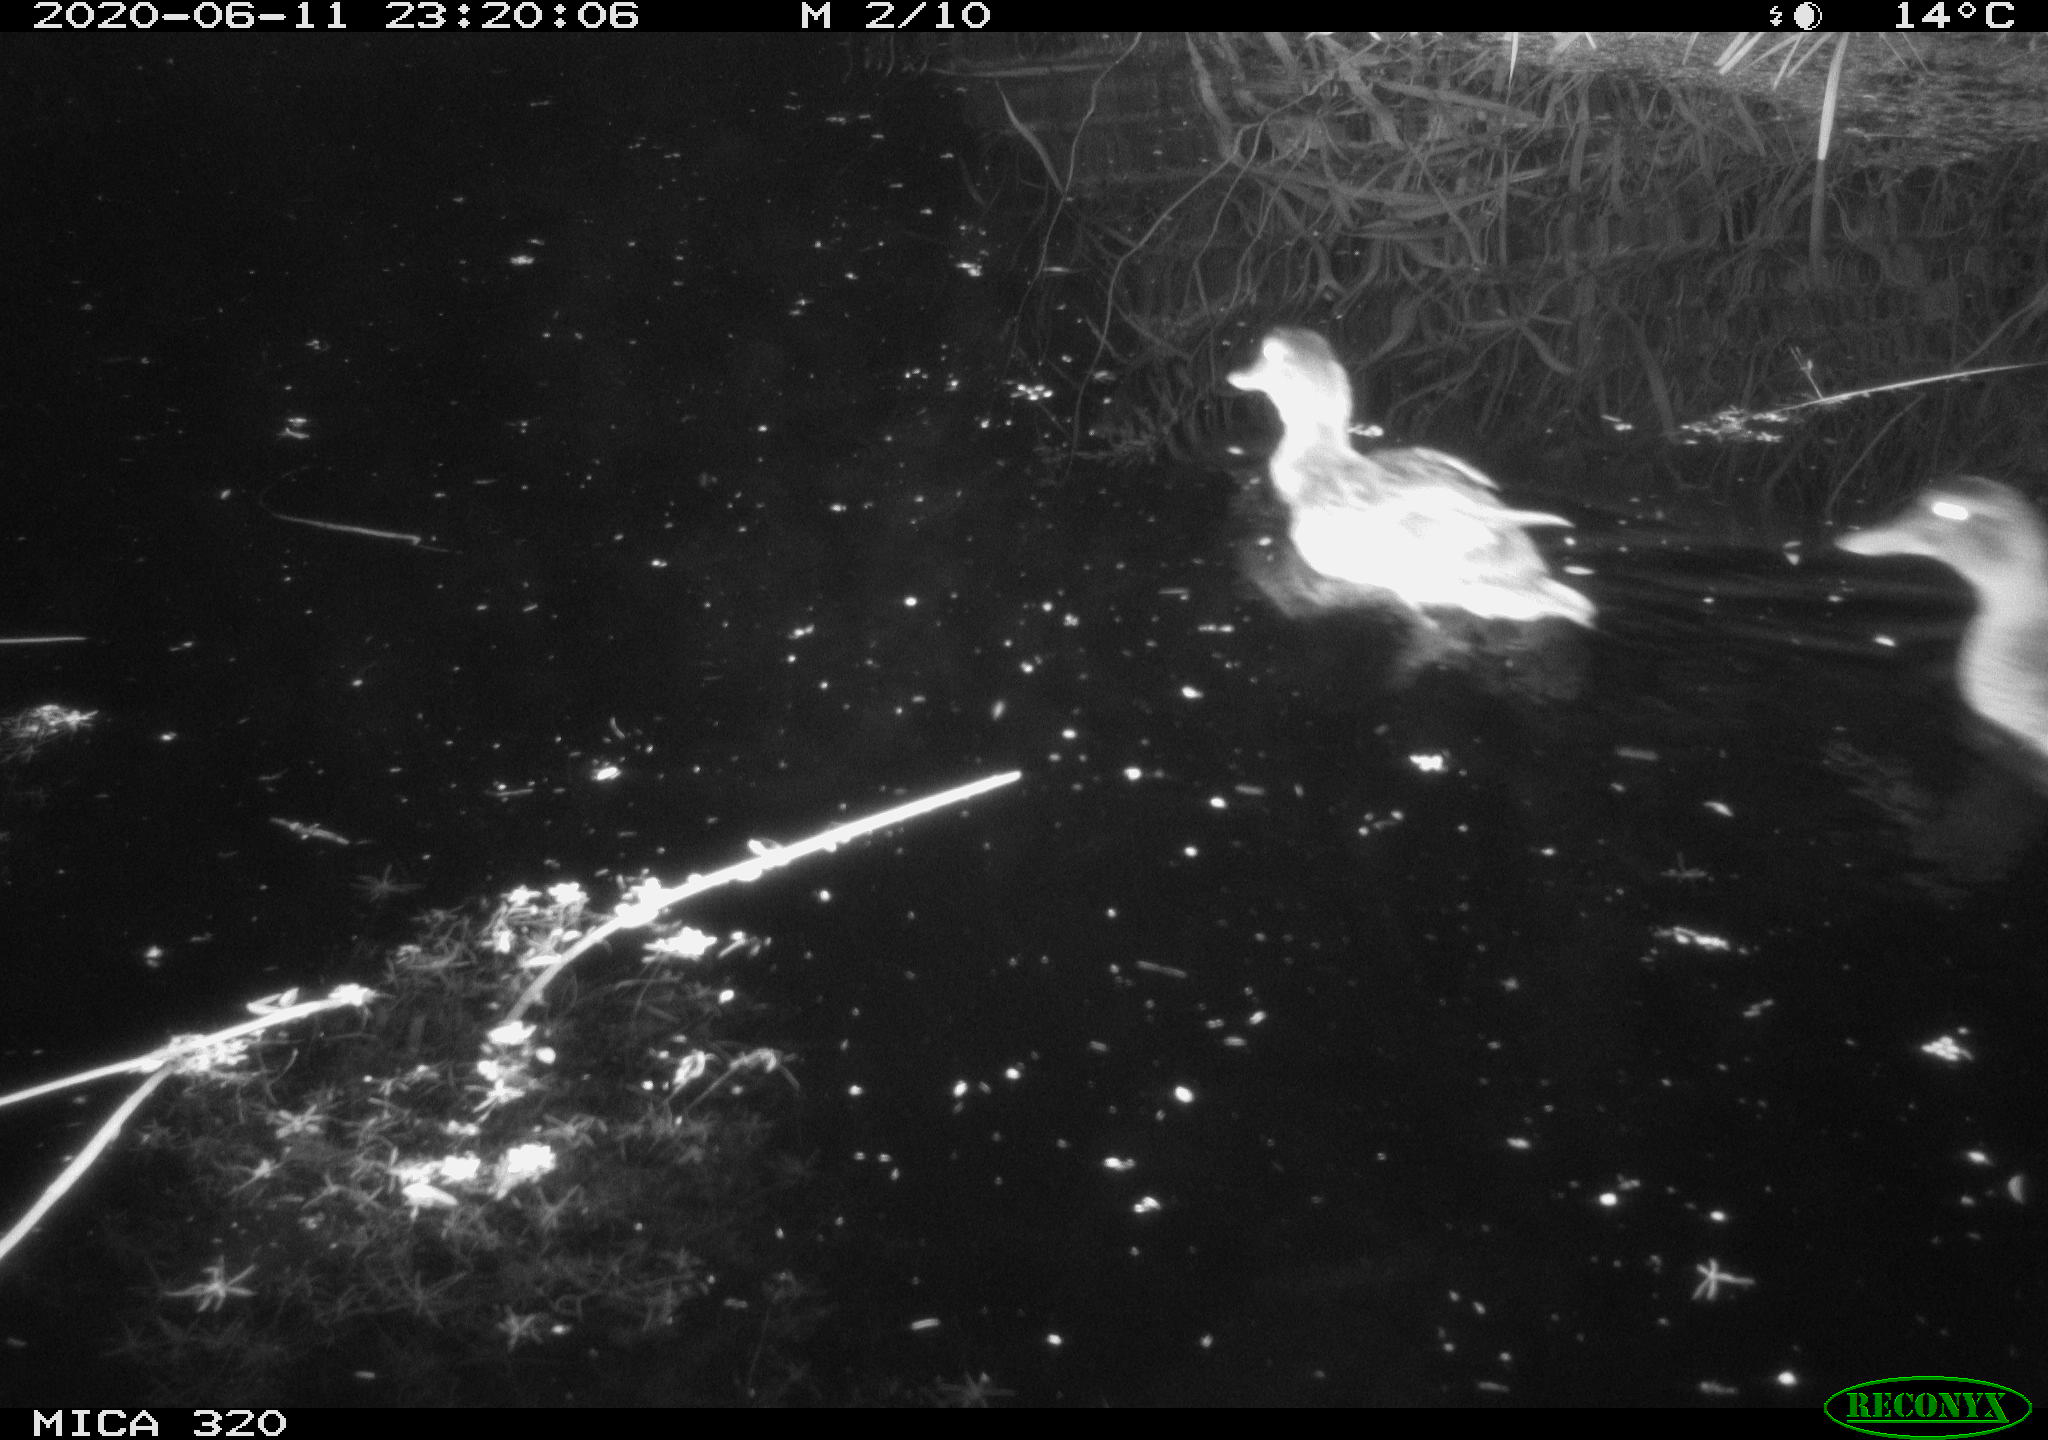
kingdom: Animalia
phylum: Chordata
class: Aves
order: Anseriformes
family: Anatidae
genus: Anas
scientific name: Anas platyrhynchos
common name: Mallard
